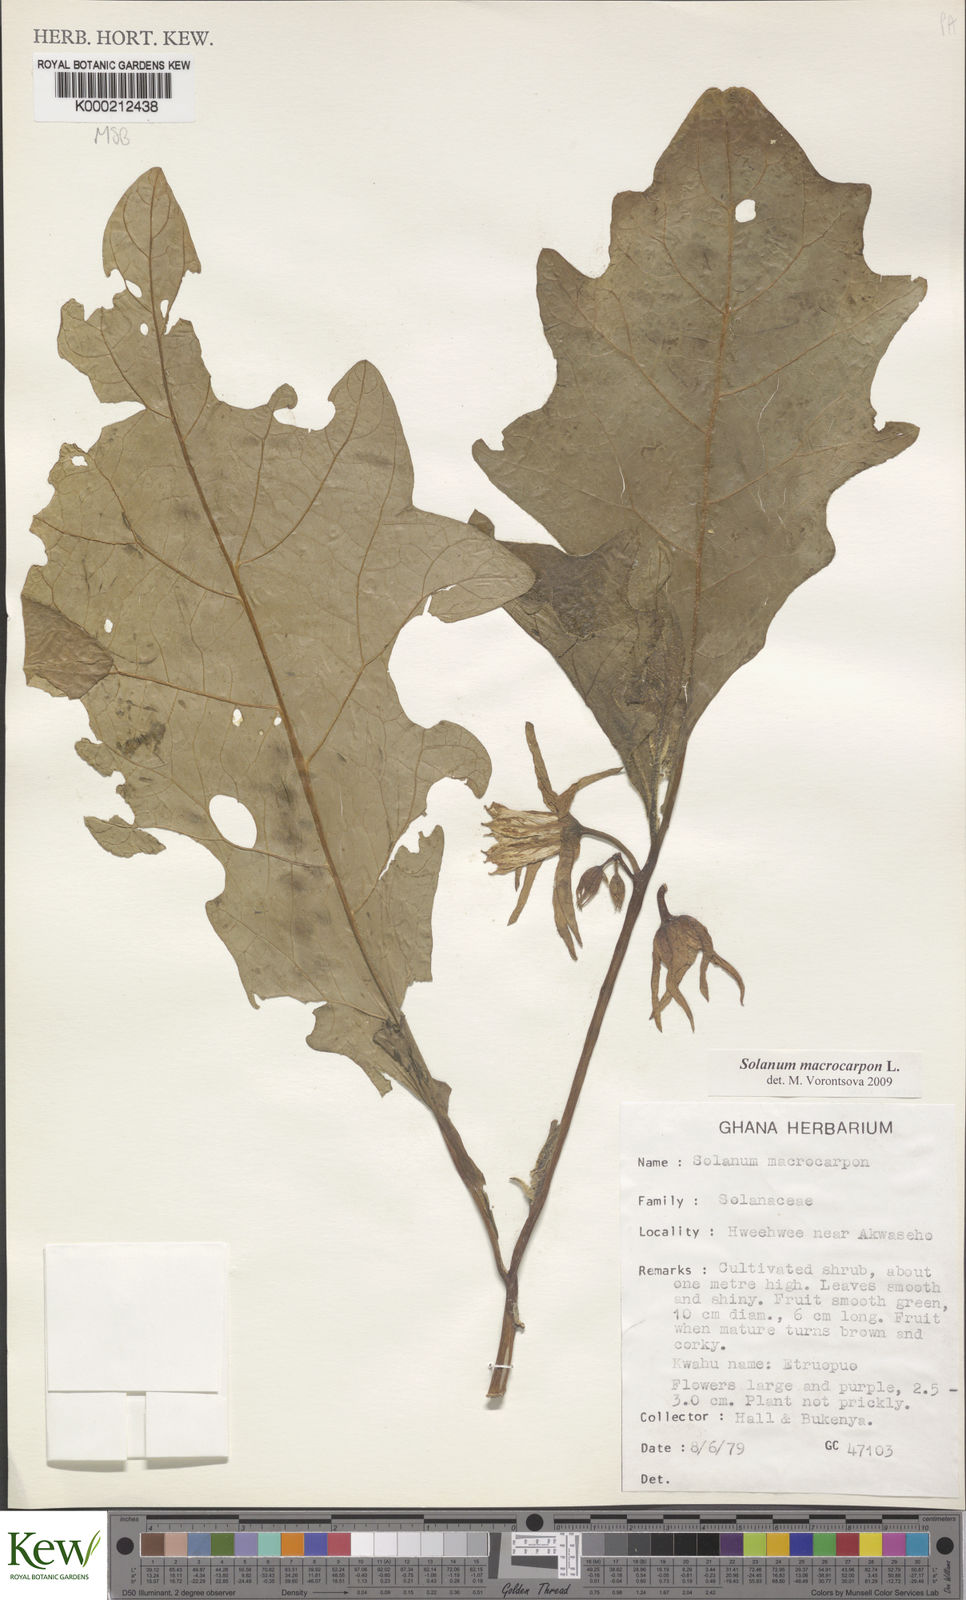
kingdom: Plantae
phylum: Tracheophyta
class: Magnoliopsida
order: Solanales
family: Solanaceae
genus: Solanum
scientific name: Solanum macrocarpon
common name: African eggplant
